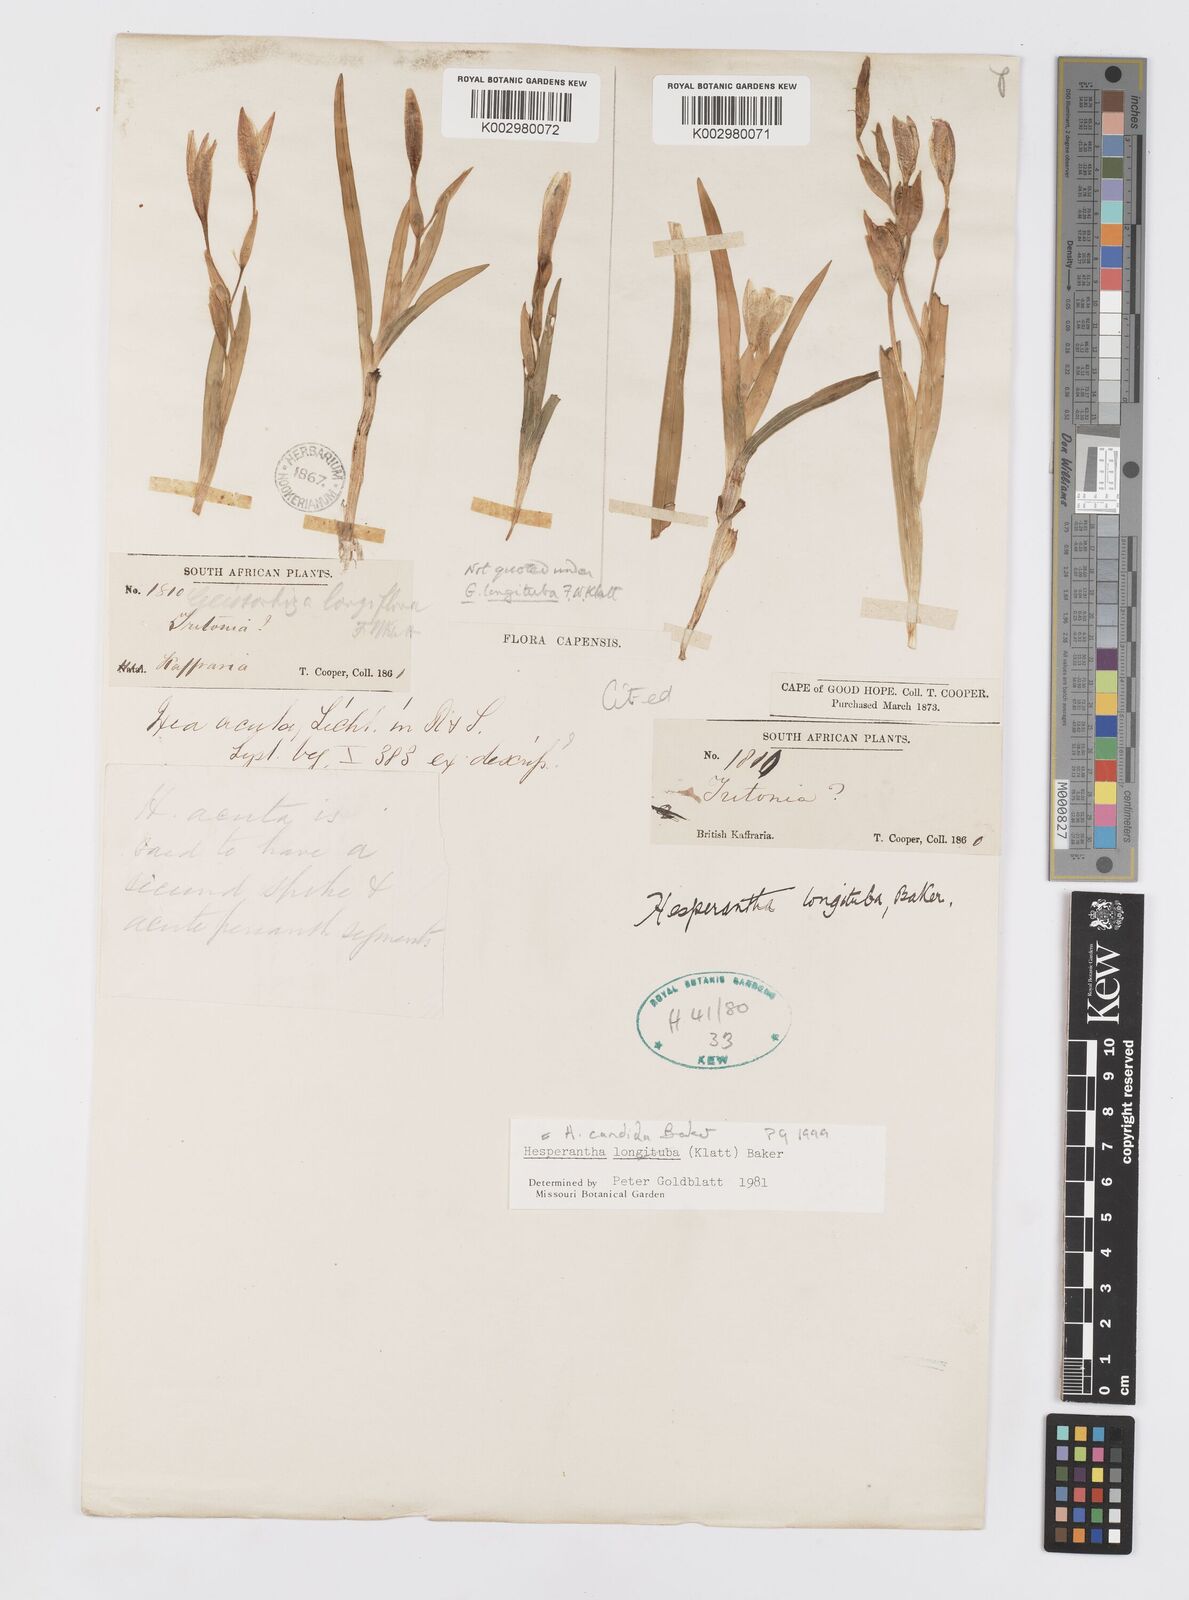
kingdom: Plantae
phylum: Tracheophyta
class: Liliopsida
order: Asparagales
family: Iridaceae
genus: Hesperantha
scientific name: Hesperantha candida
